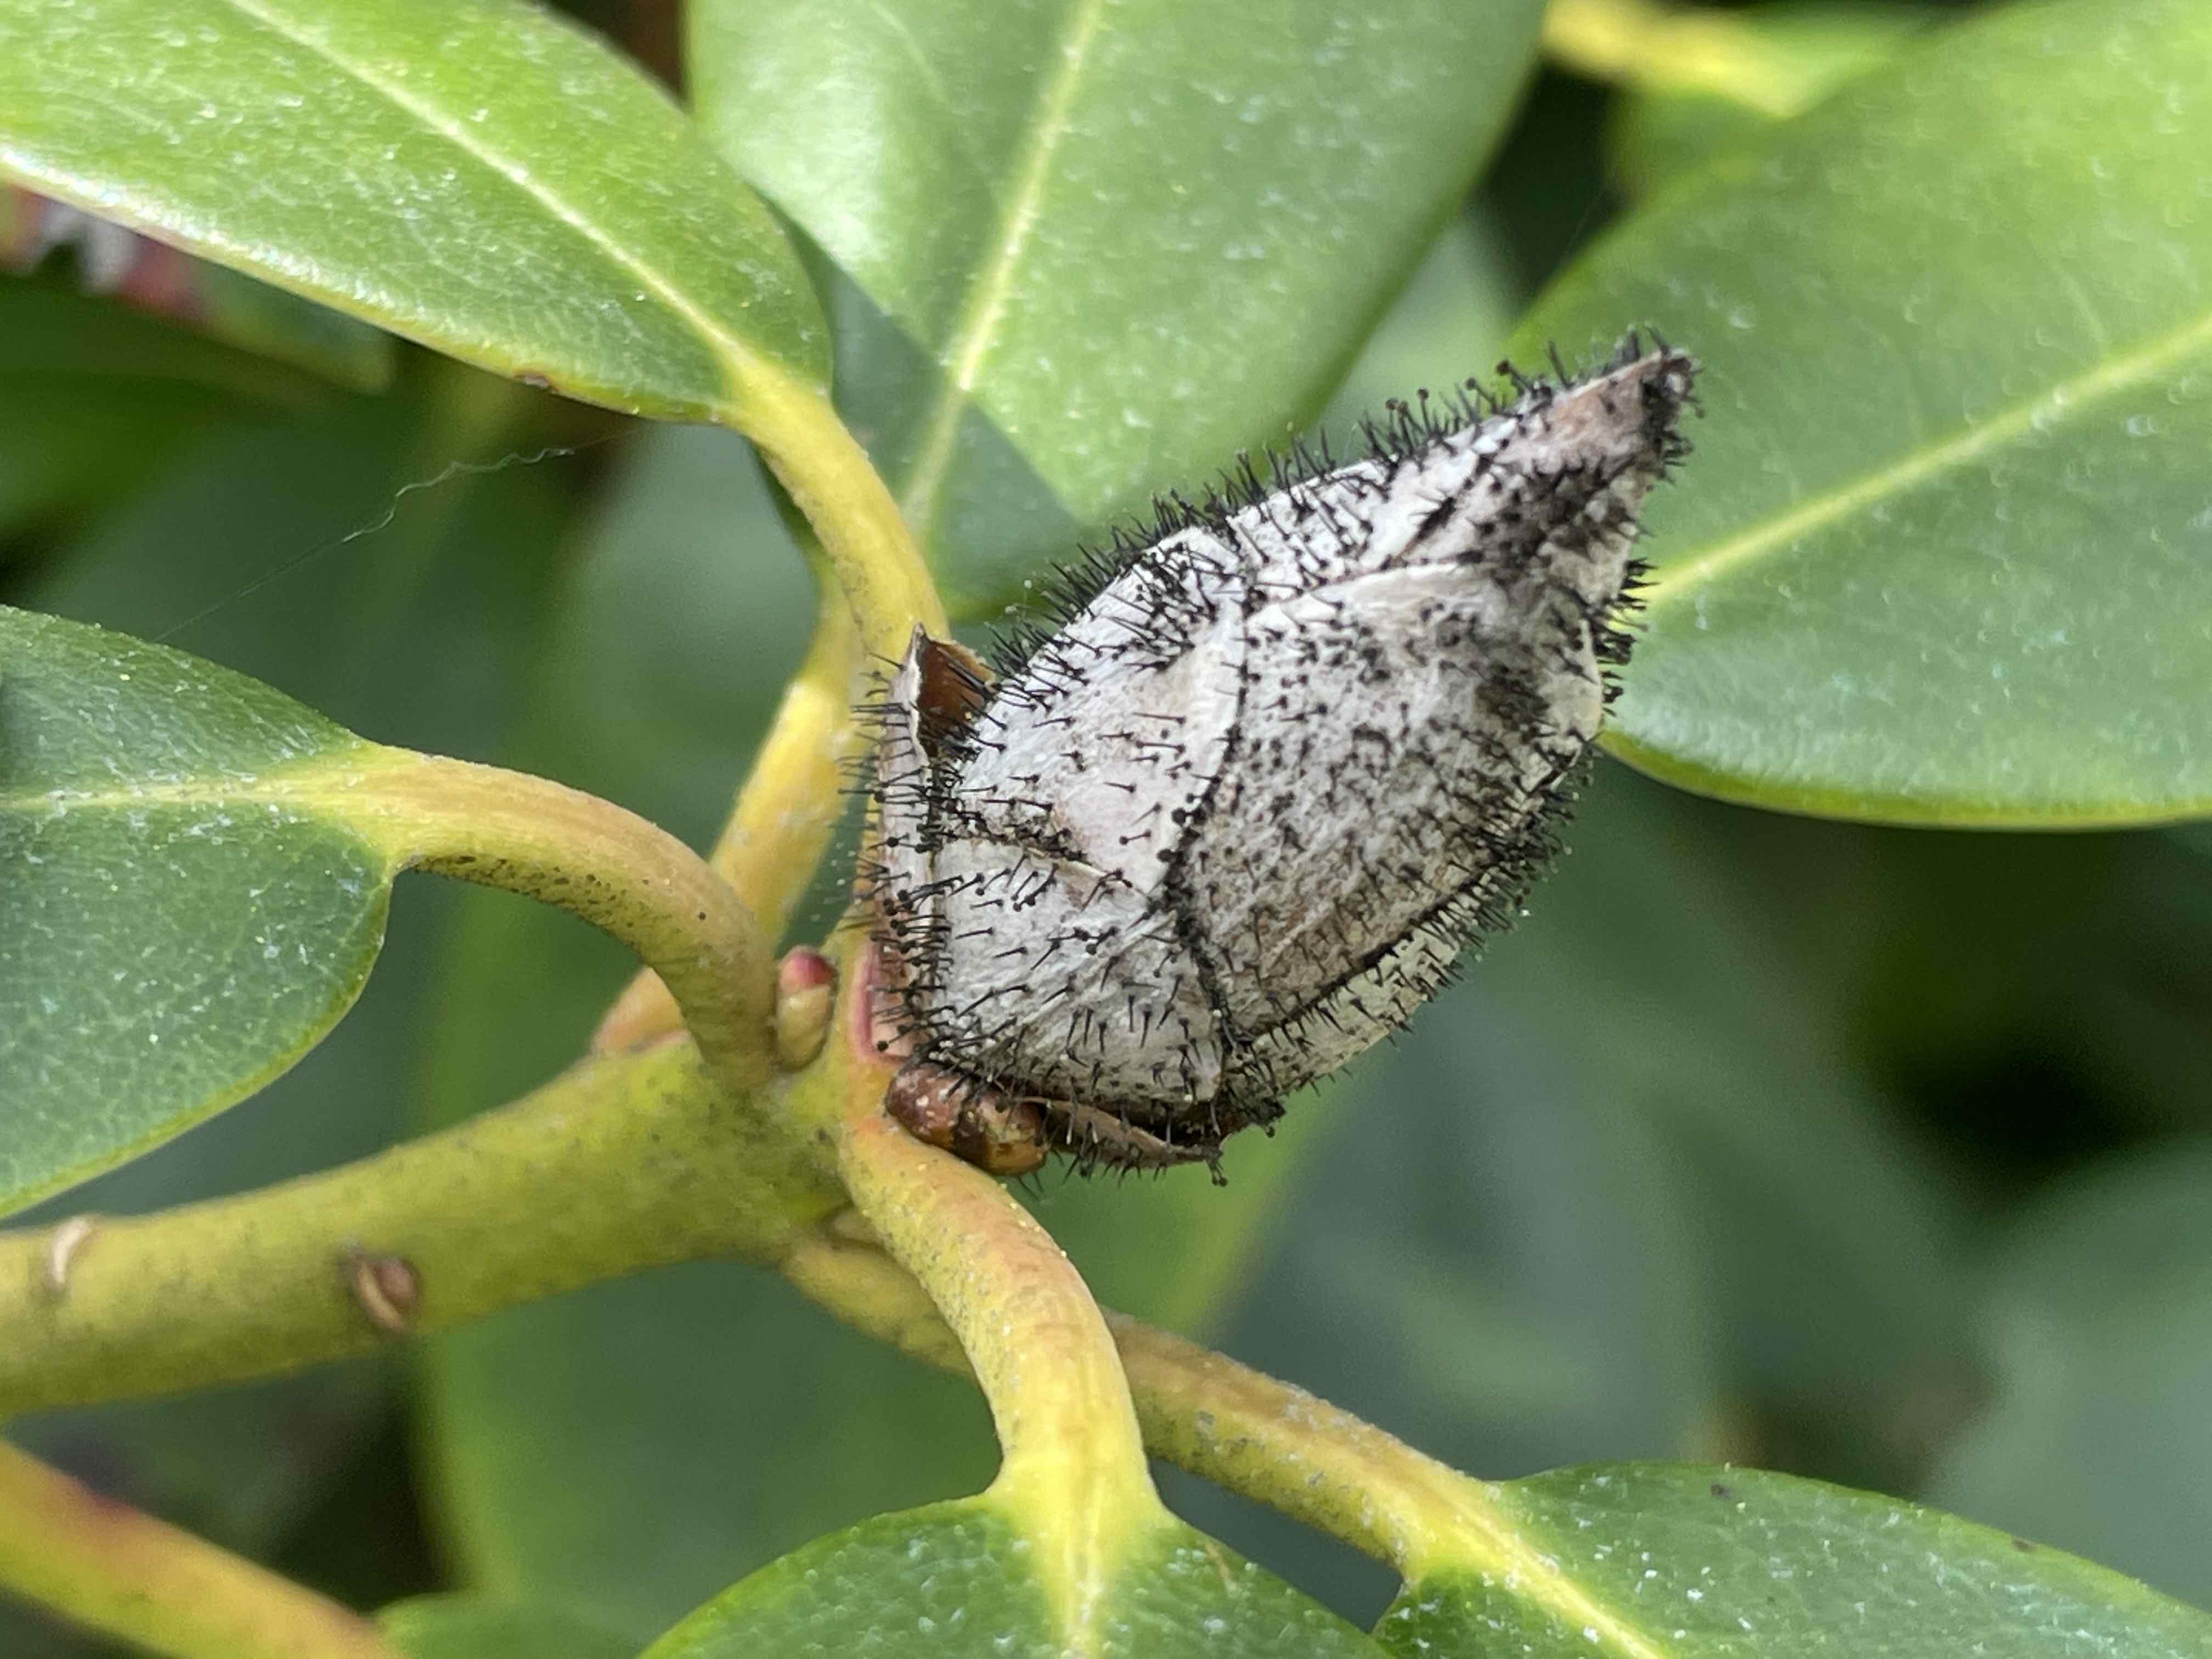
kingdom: Fungi
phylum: Ascomycota
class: Dothideomycetes
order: Pleosporales
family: Melanommataceae
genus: Seifertia
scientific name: Seifertia azaleae
